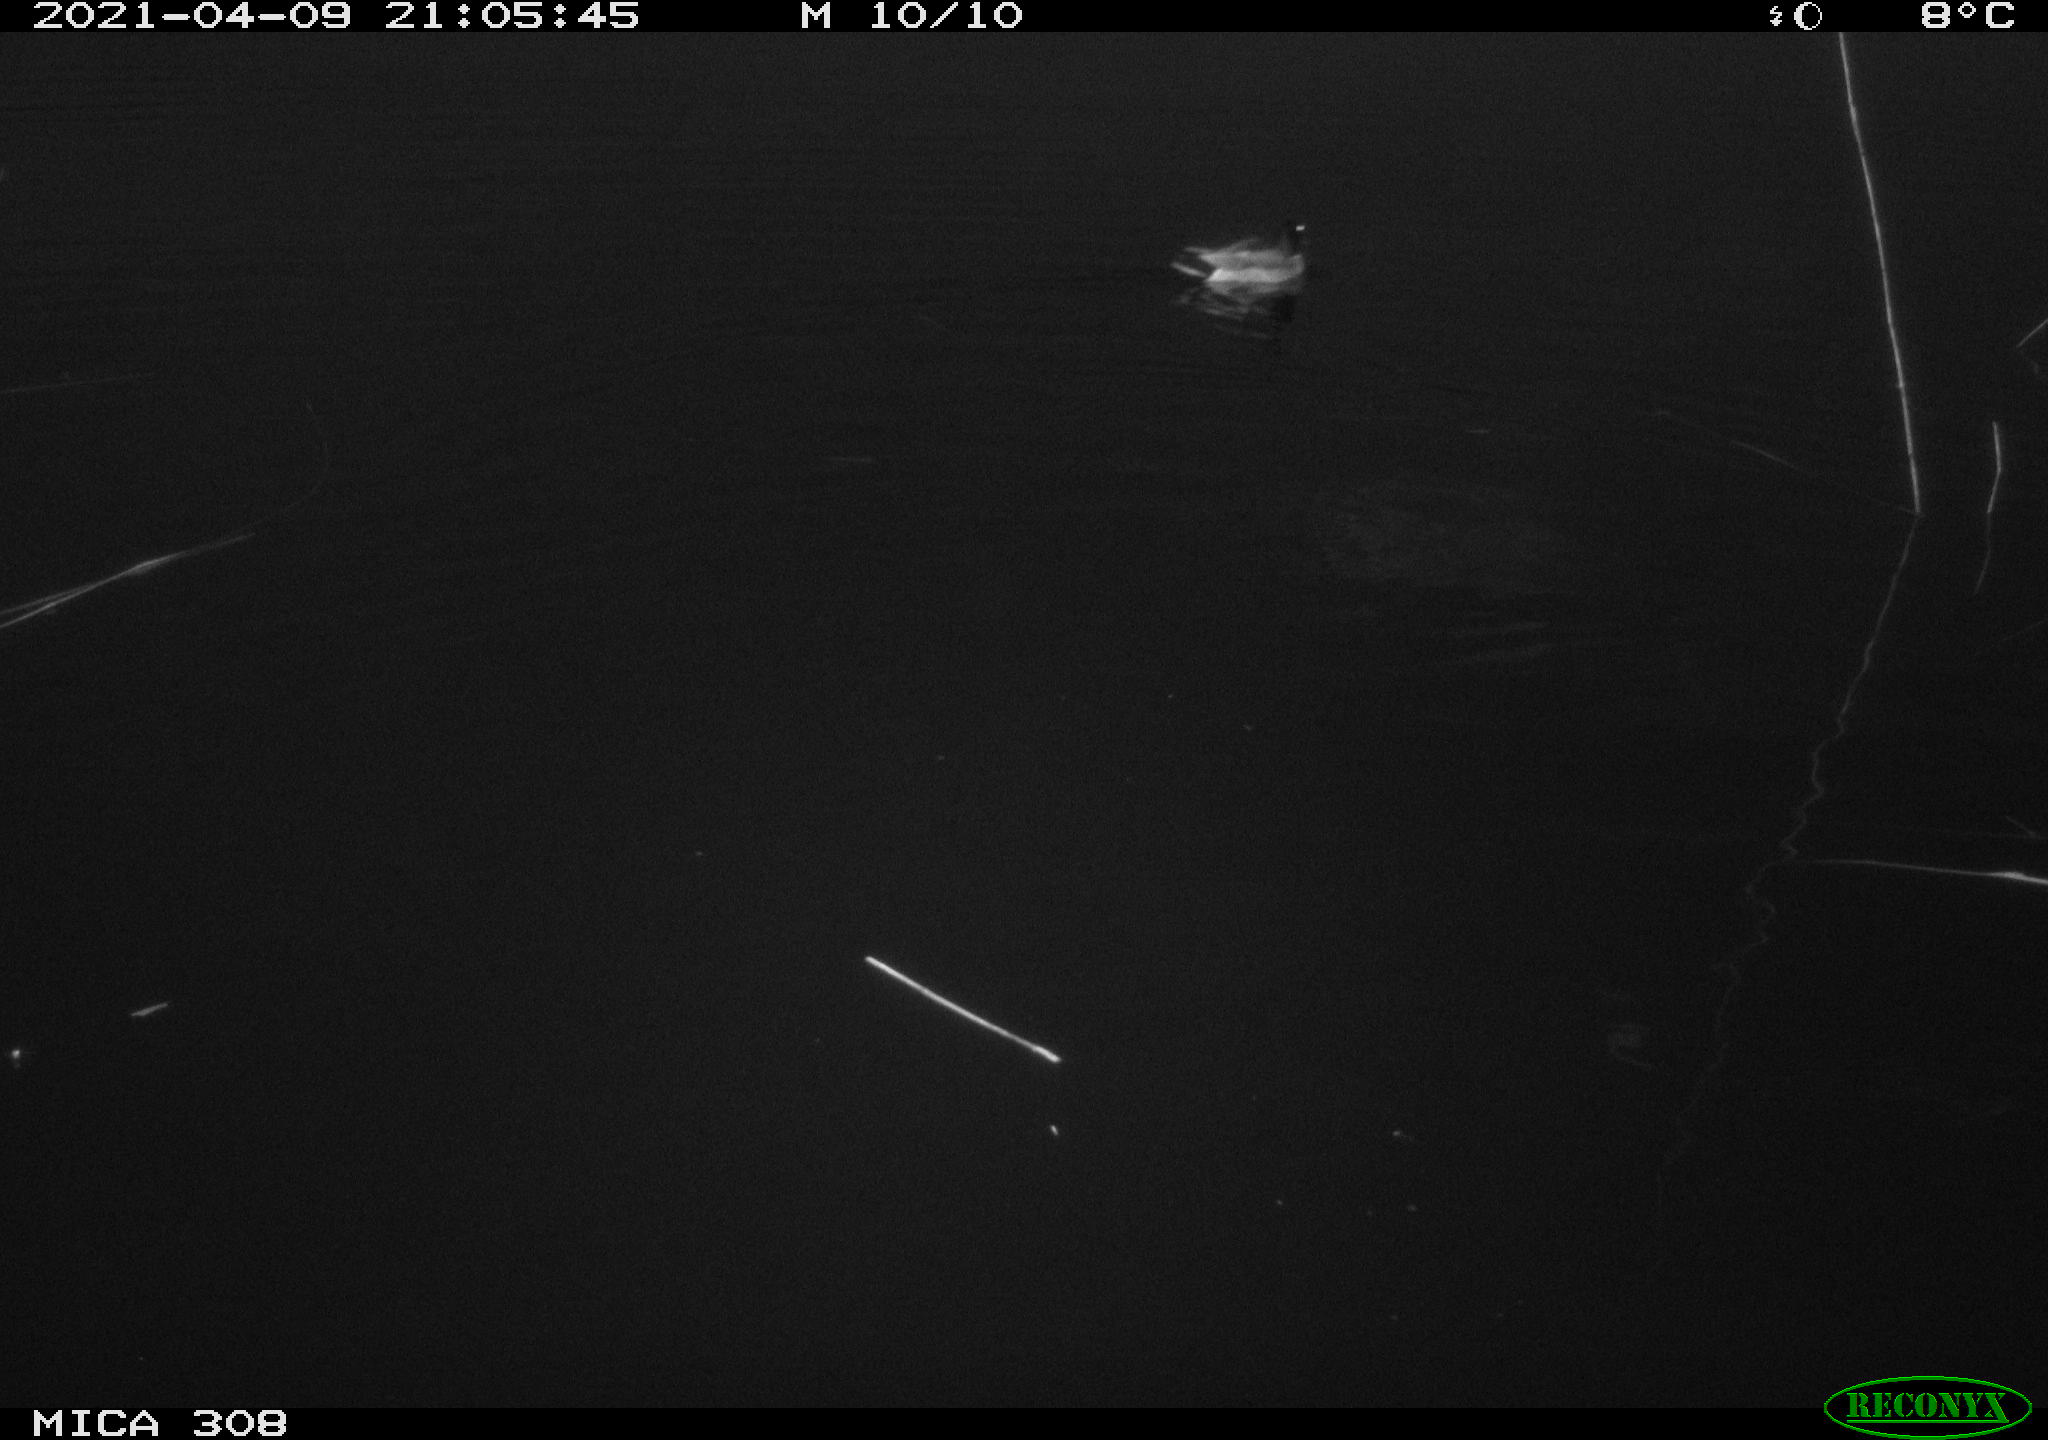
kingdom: Animalia
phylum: Chordata
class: Aves
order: Anseriformes
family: Anatidae
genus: Anas
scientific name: Anas platyrhynchos
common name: Mallard
